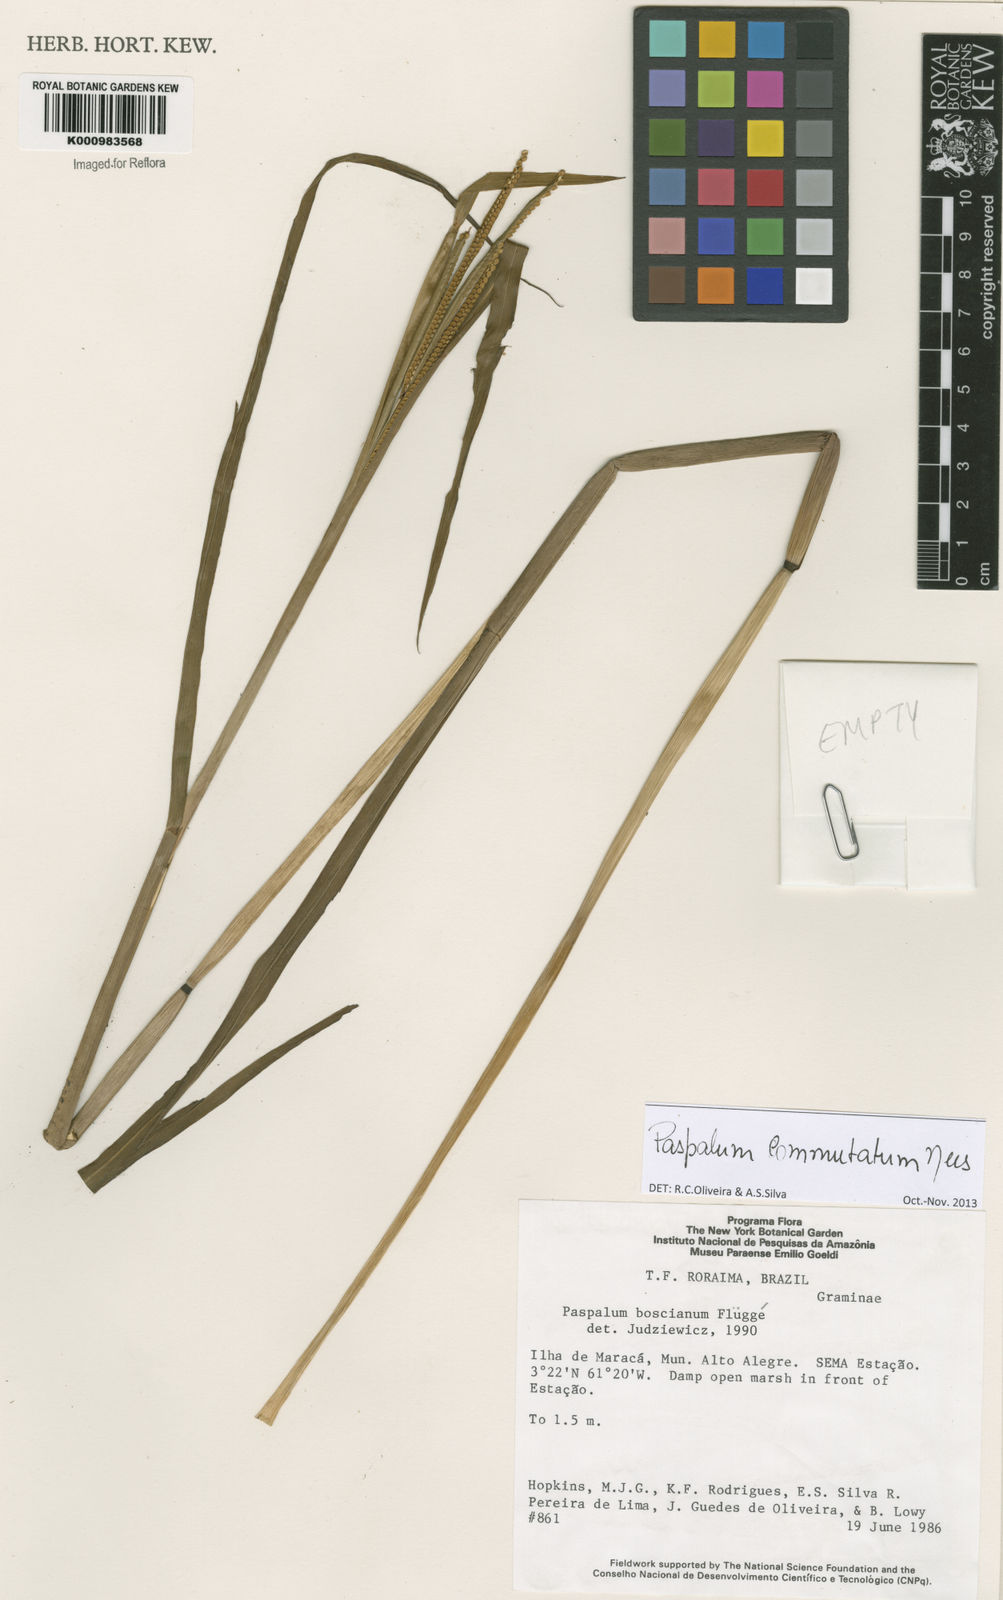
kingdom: Plantae
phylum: Tracheophyta
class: Liliopsida
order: Poales
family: Poaceae
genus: Paspalum
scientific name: Paspalum scrobiculatum
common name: Kodo millet
